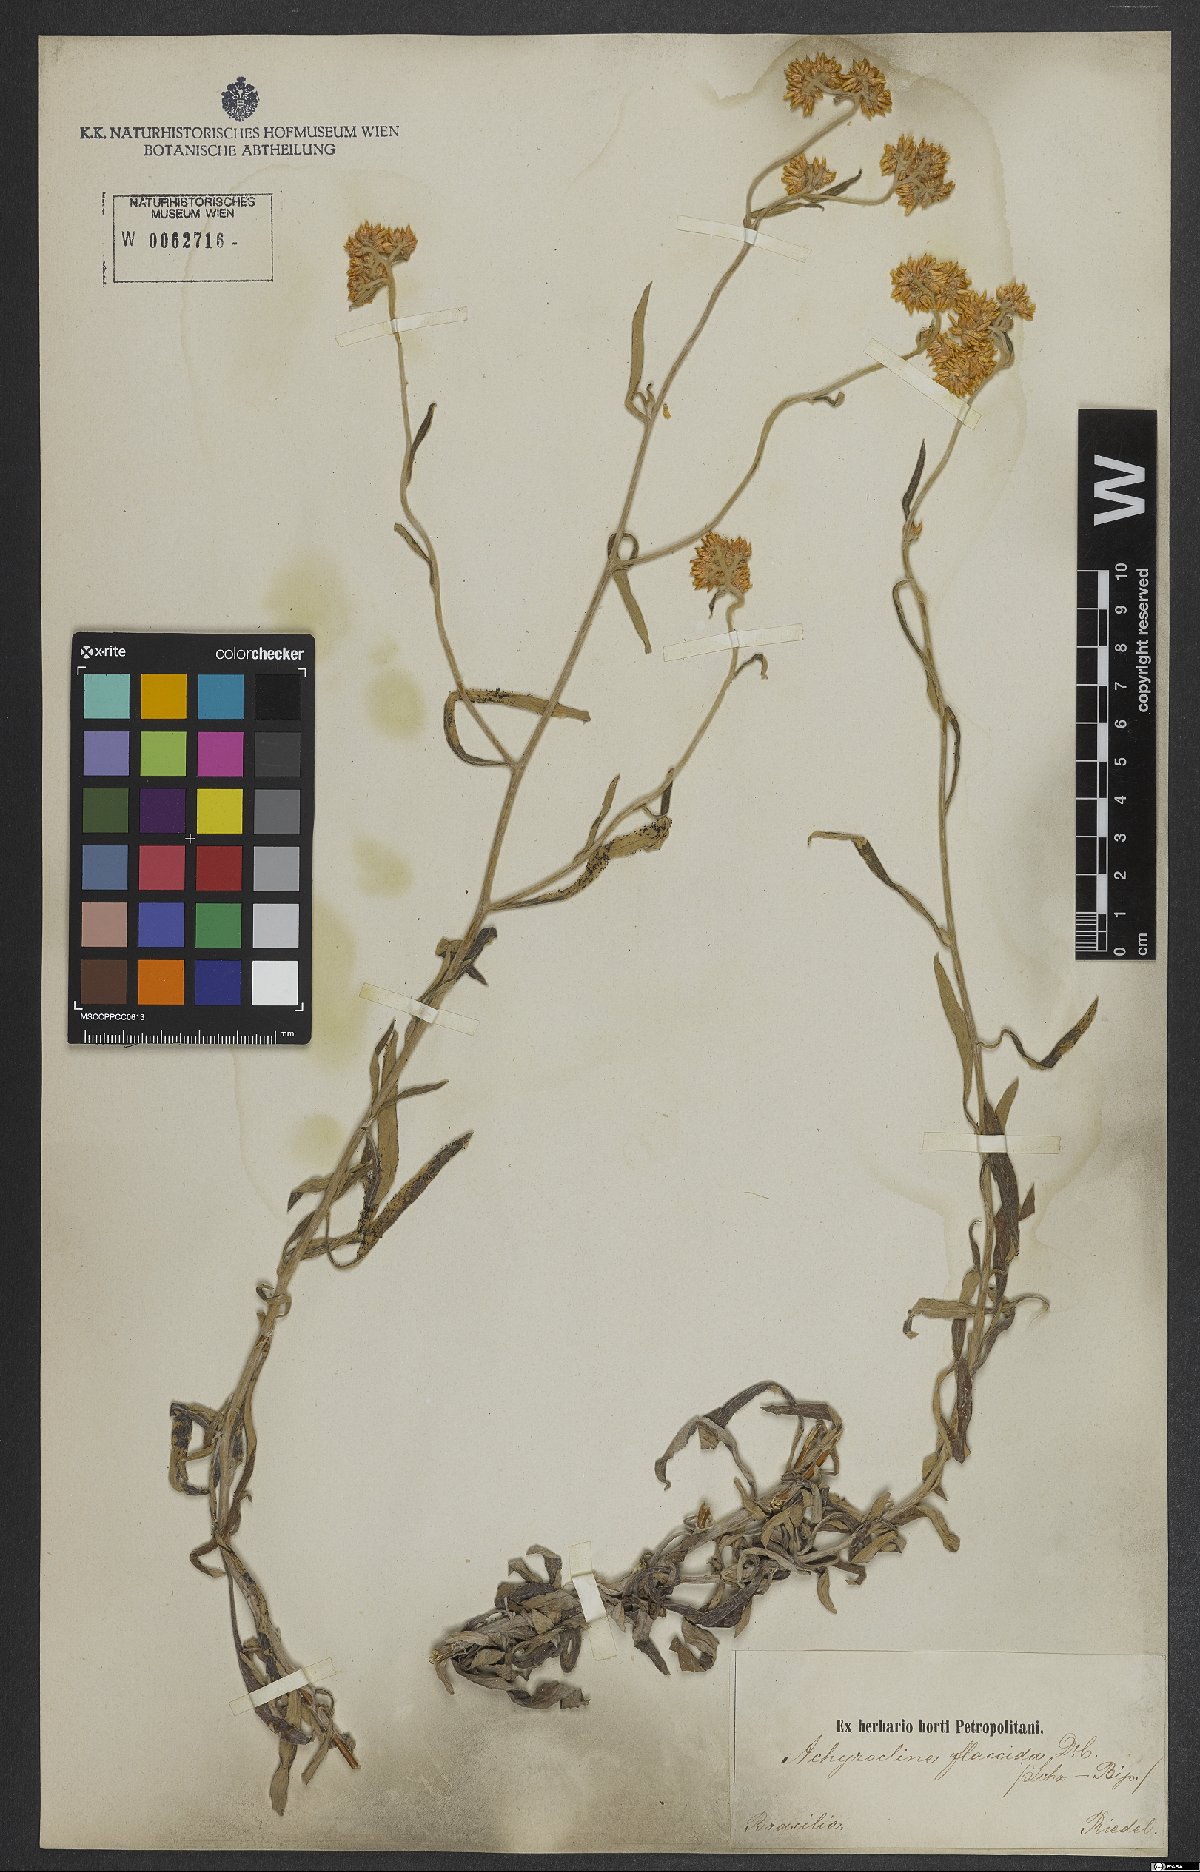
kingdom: Plantae
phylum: Tracheophyta
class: Magnoliopsida
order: Asterales
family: Asteraceae
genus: Achyrocline
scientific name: Achyrocline flaccida
